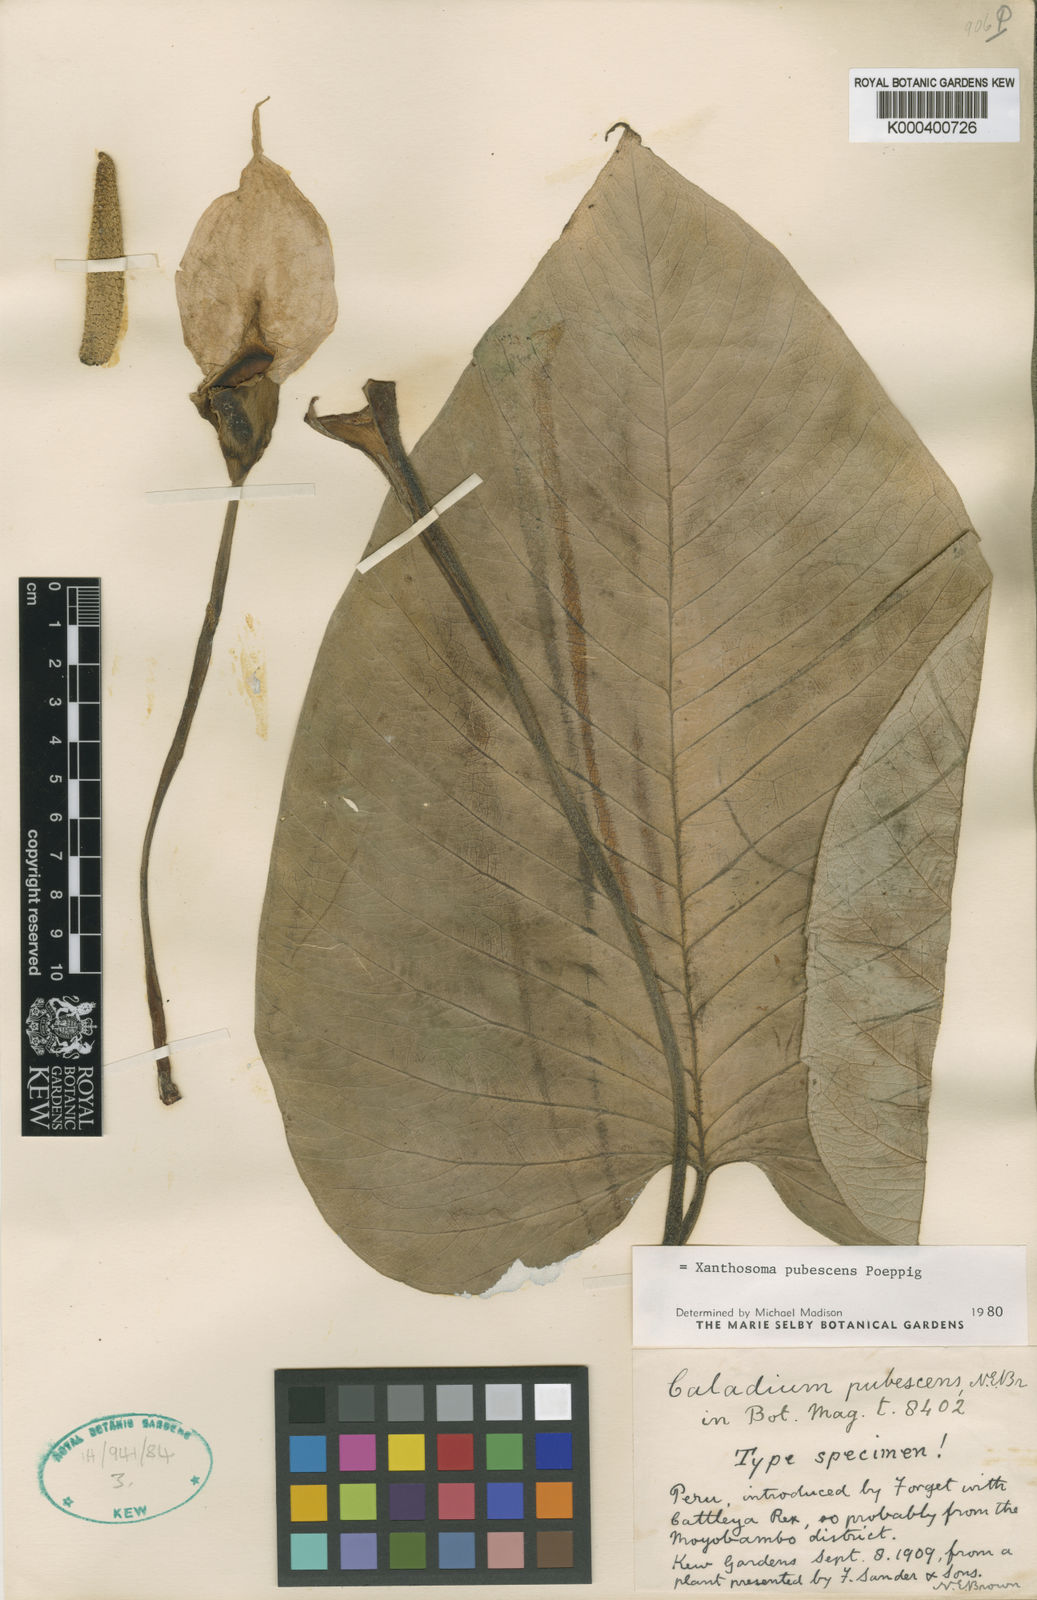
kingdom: Plantae
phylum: Tracheophyta
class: Liliopsida
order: Alismatales
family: Araceae
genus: Xanthosoma
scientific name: Xanthosoma pubescens
